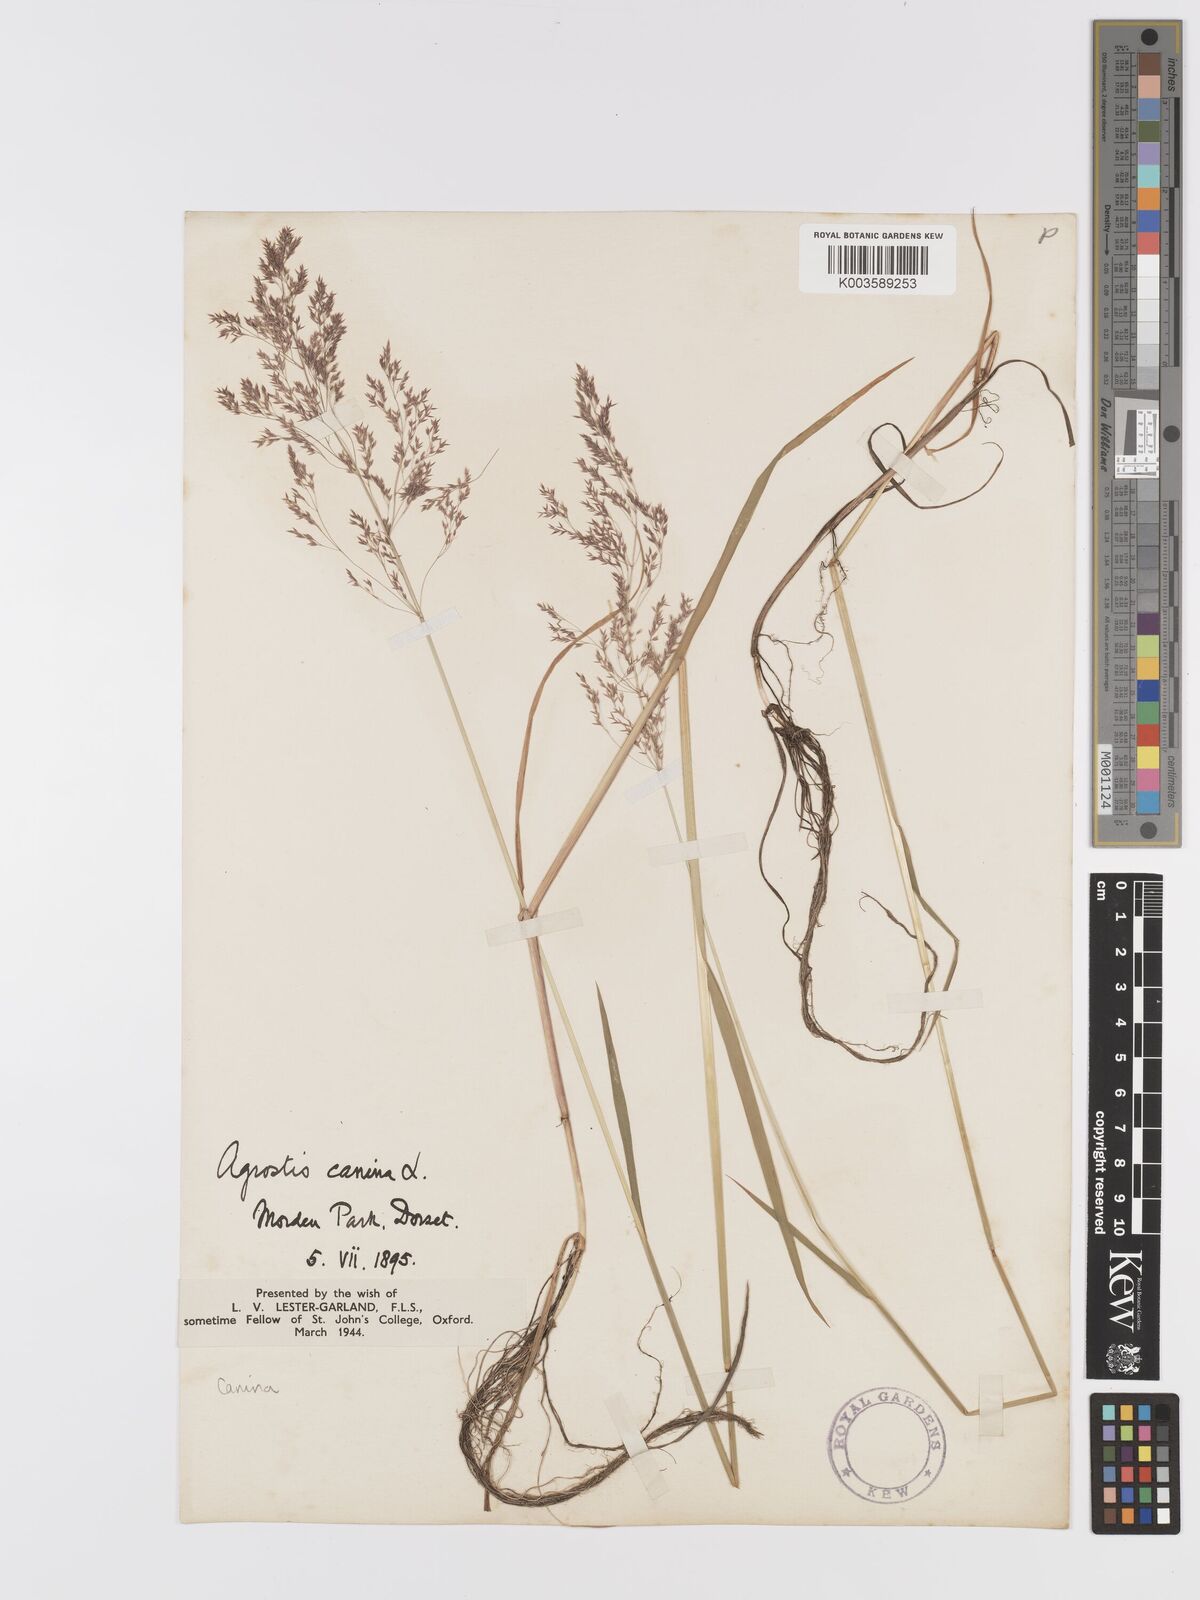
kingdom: Plantae
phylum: Tracheophyta
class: Liliopsida
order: Poales
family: Poaceae
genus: Agrostis
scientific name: Agrostis canina
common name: Velvet bent
